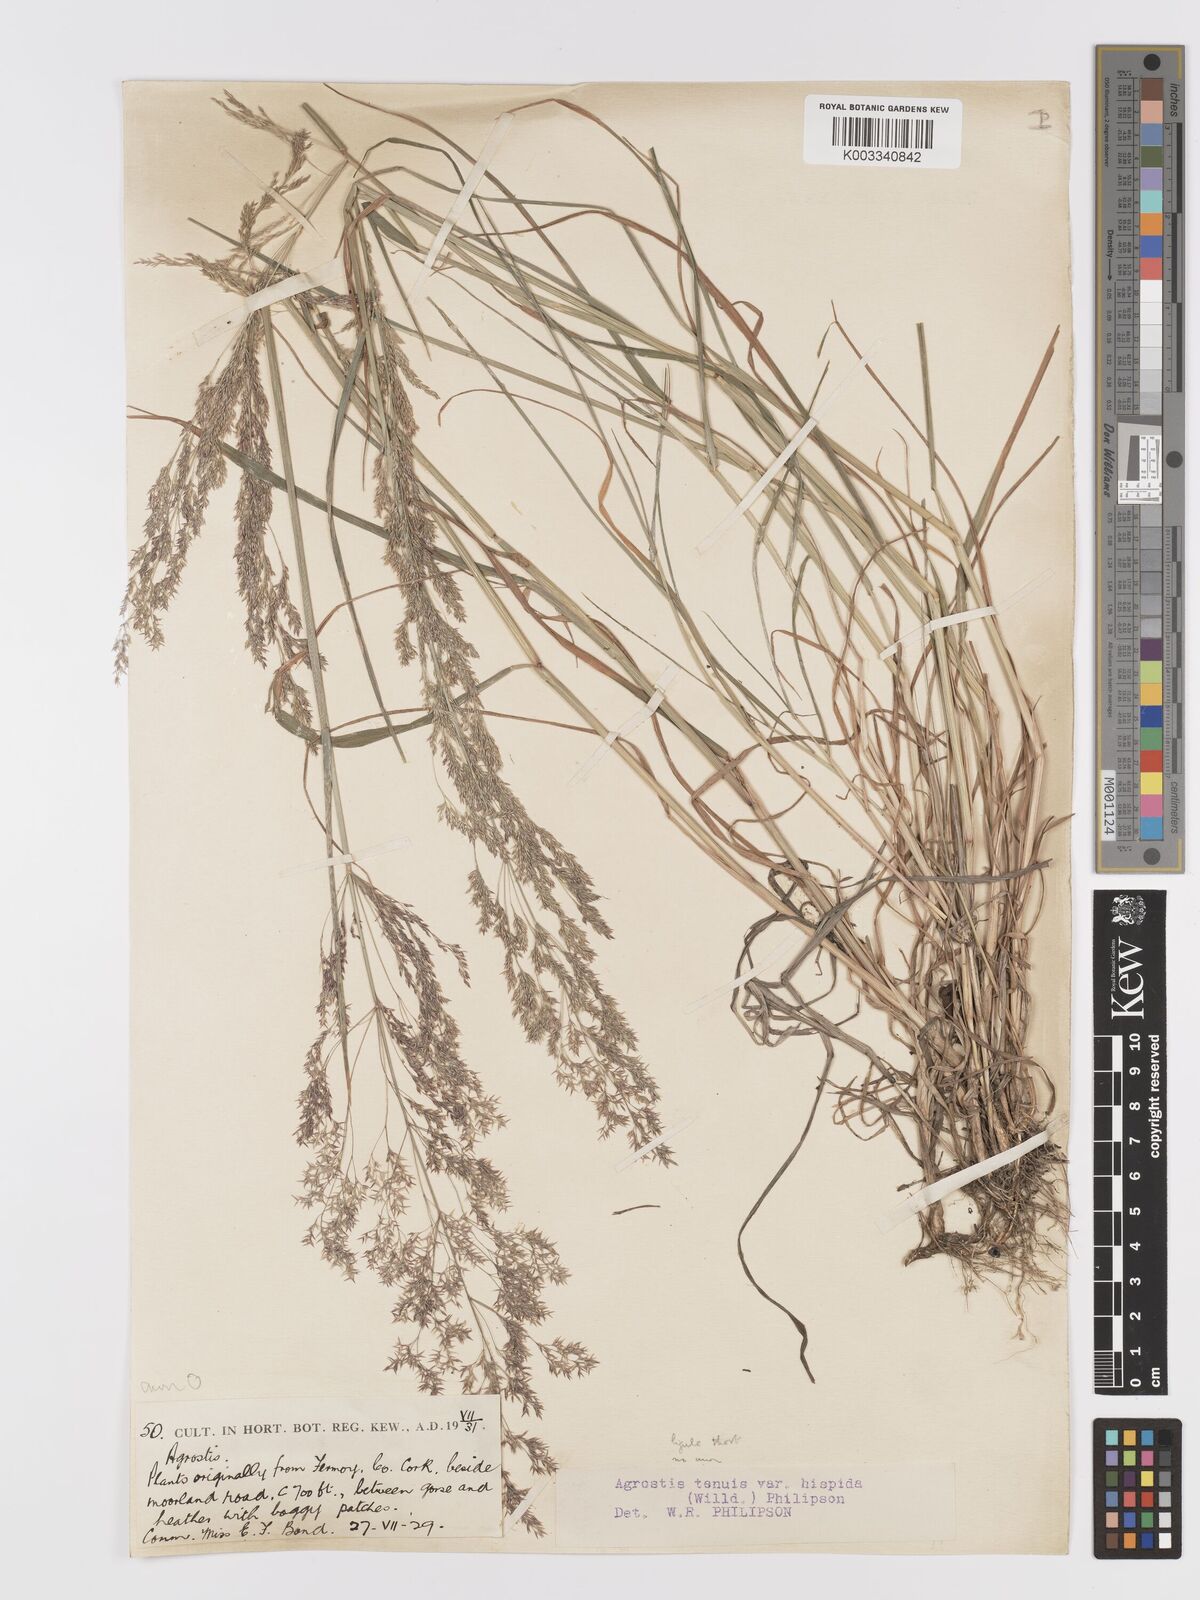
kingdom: Plantae
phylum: Tracheophyta
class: Liliopsida
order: Poales
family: Poaceae
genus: Agrostis
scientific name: Agrostis capillaris
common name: Colonial bentgrass
